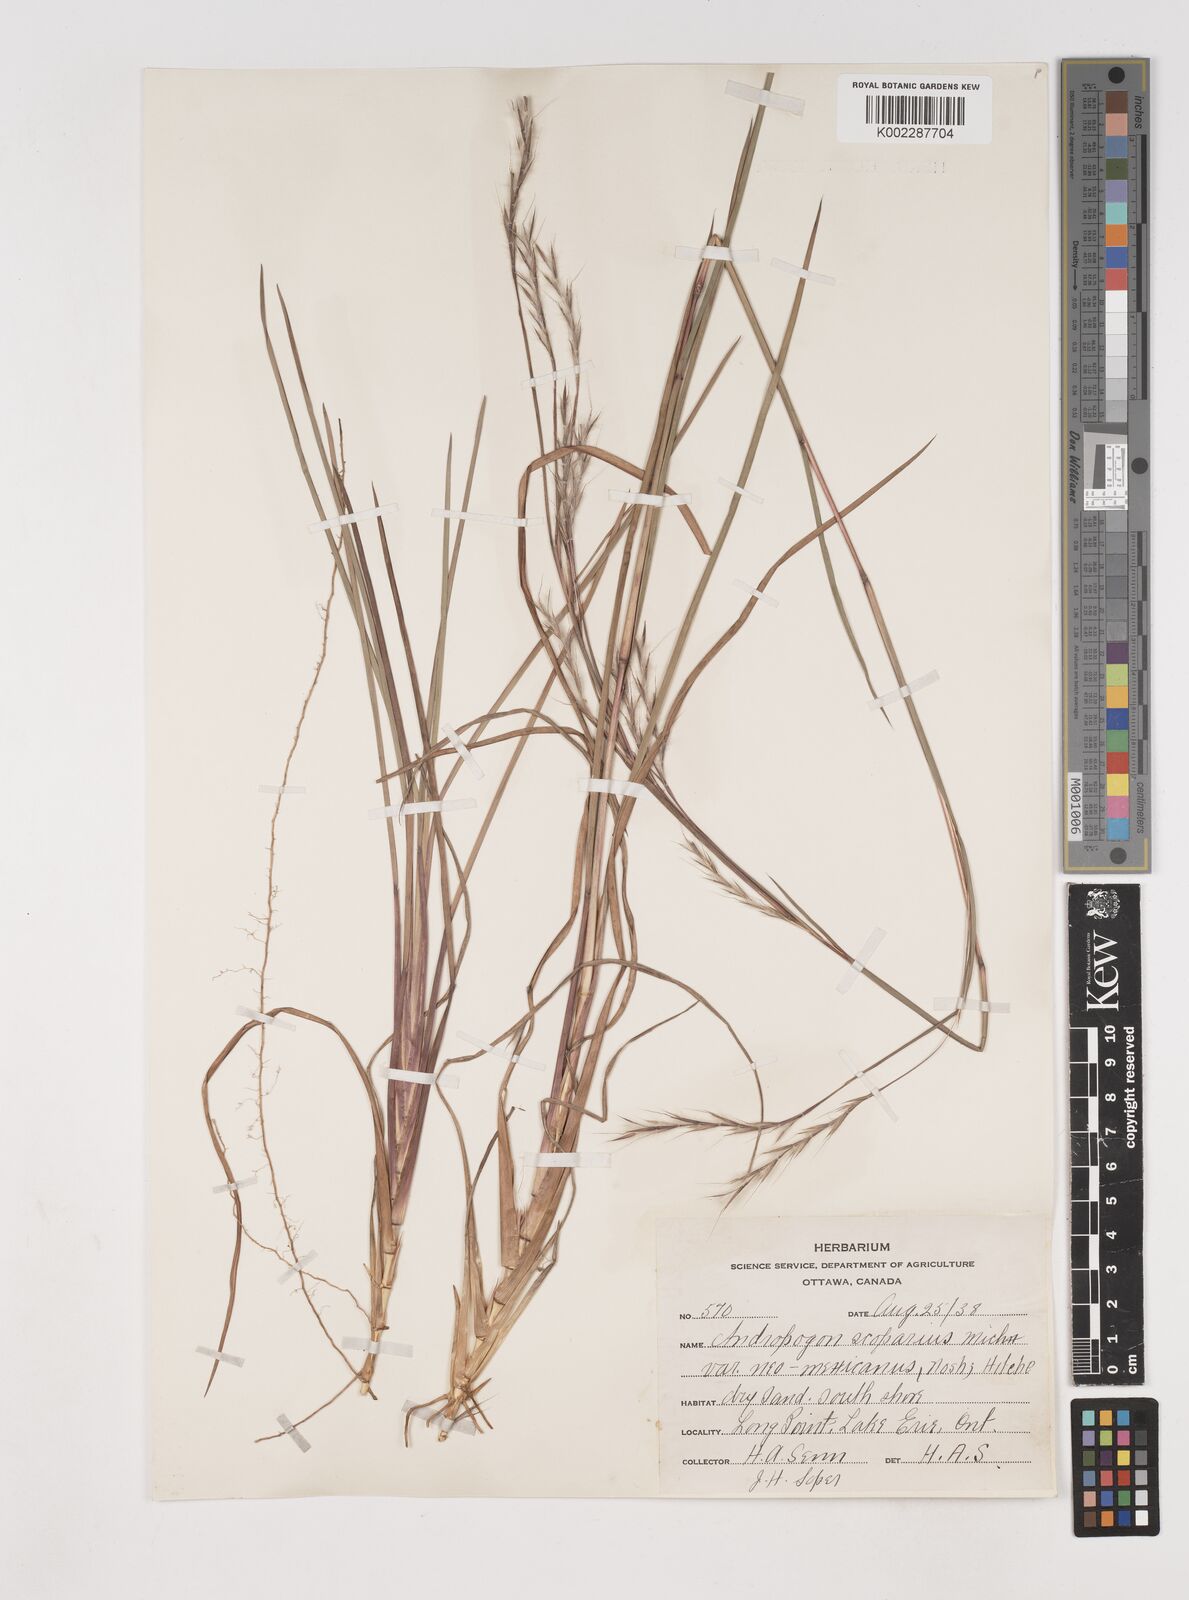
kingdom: Plantae
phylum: Tracheophyta
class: Liliopsida
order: Poales
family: Poaceae
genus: Schizachyrium
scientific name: Schizachyrium scoparium
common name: Little bluestem
